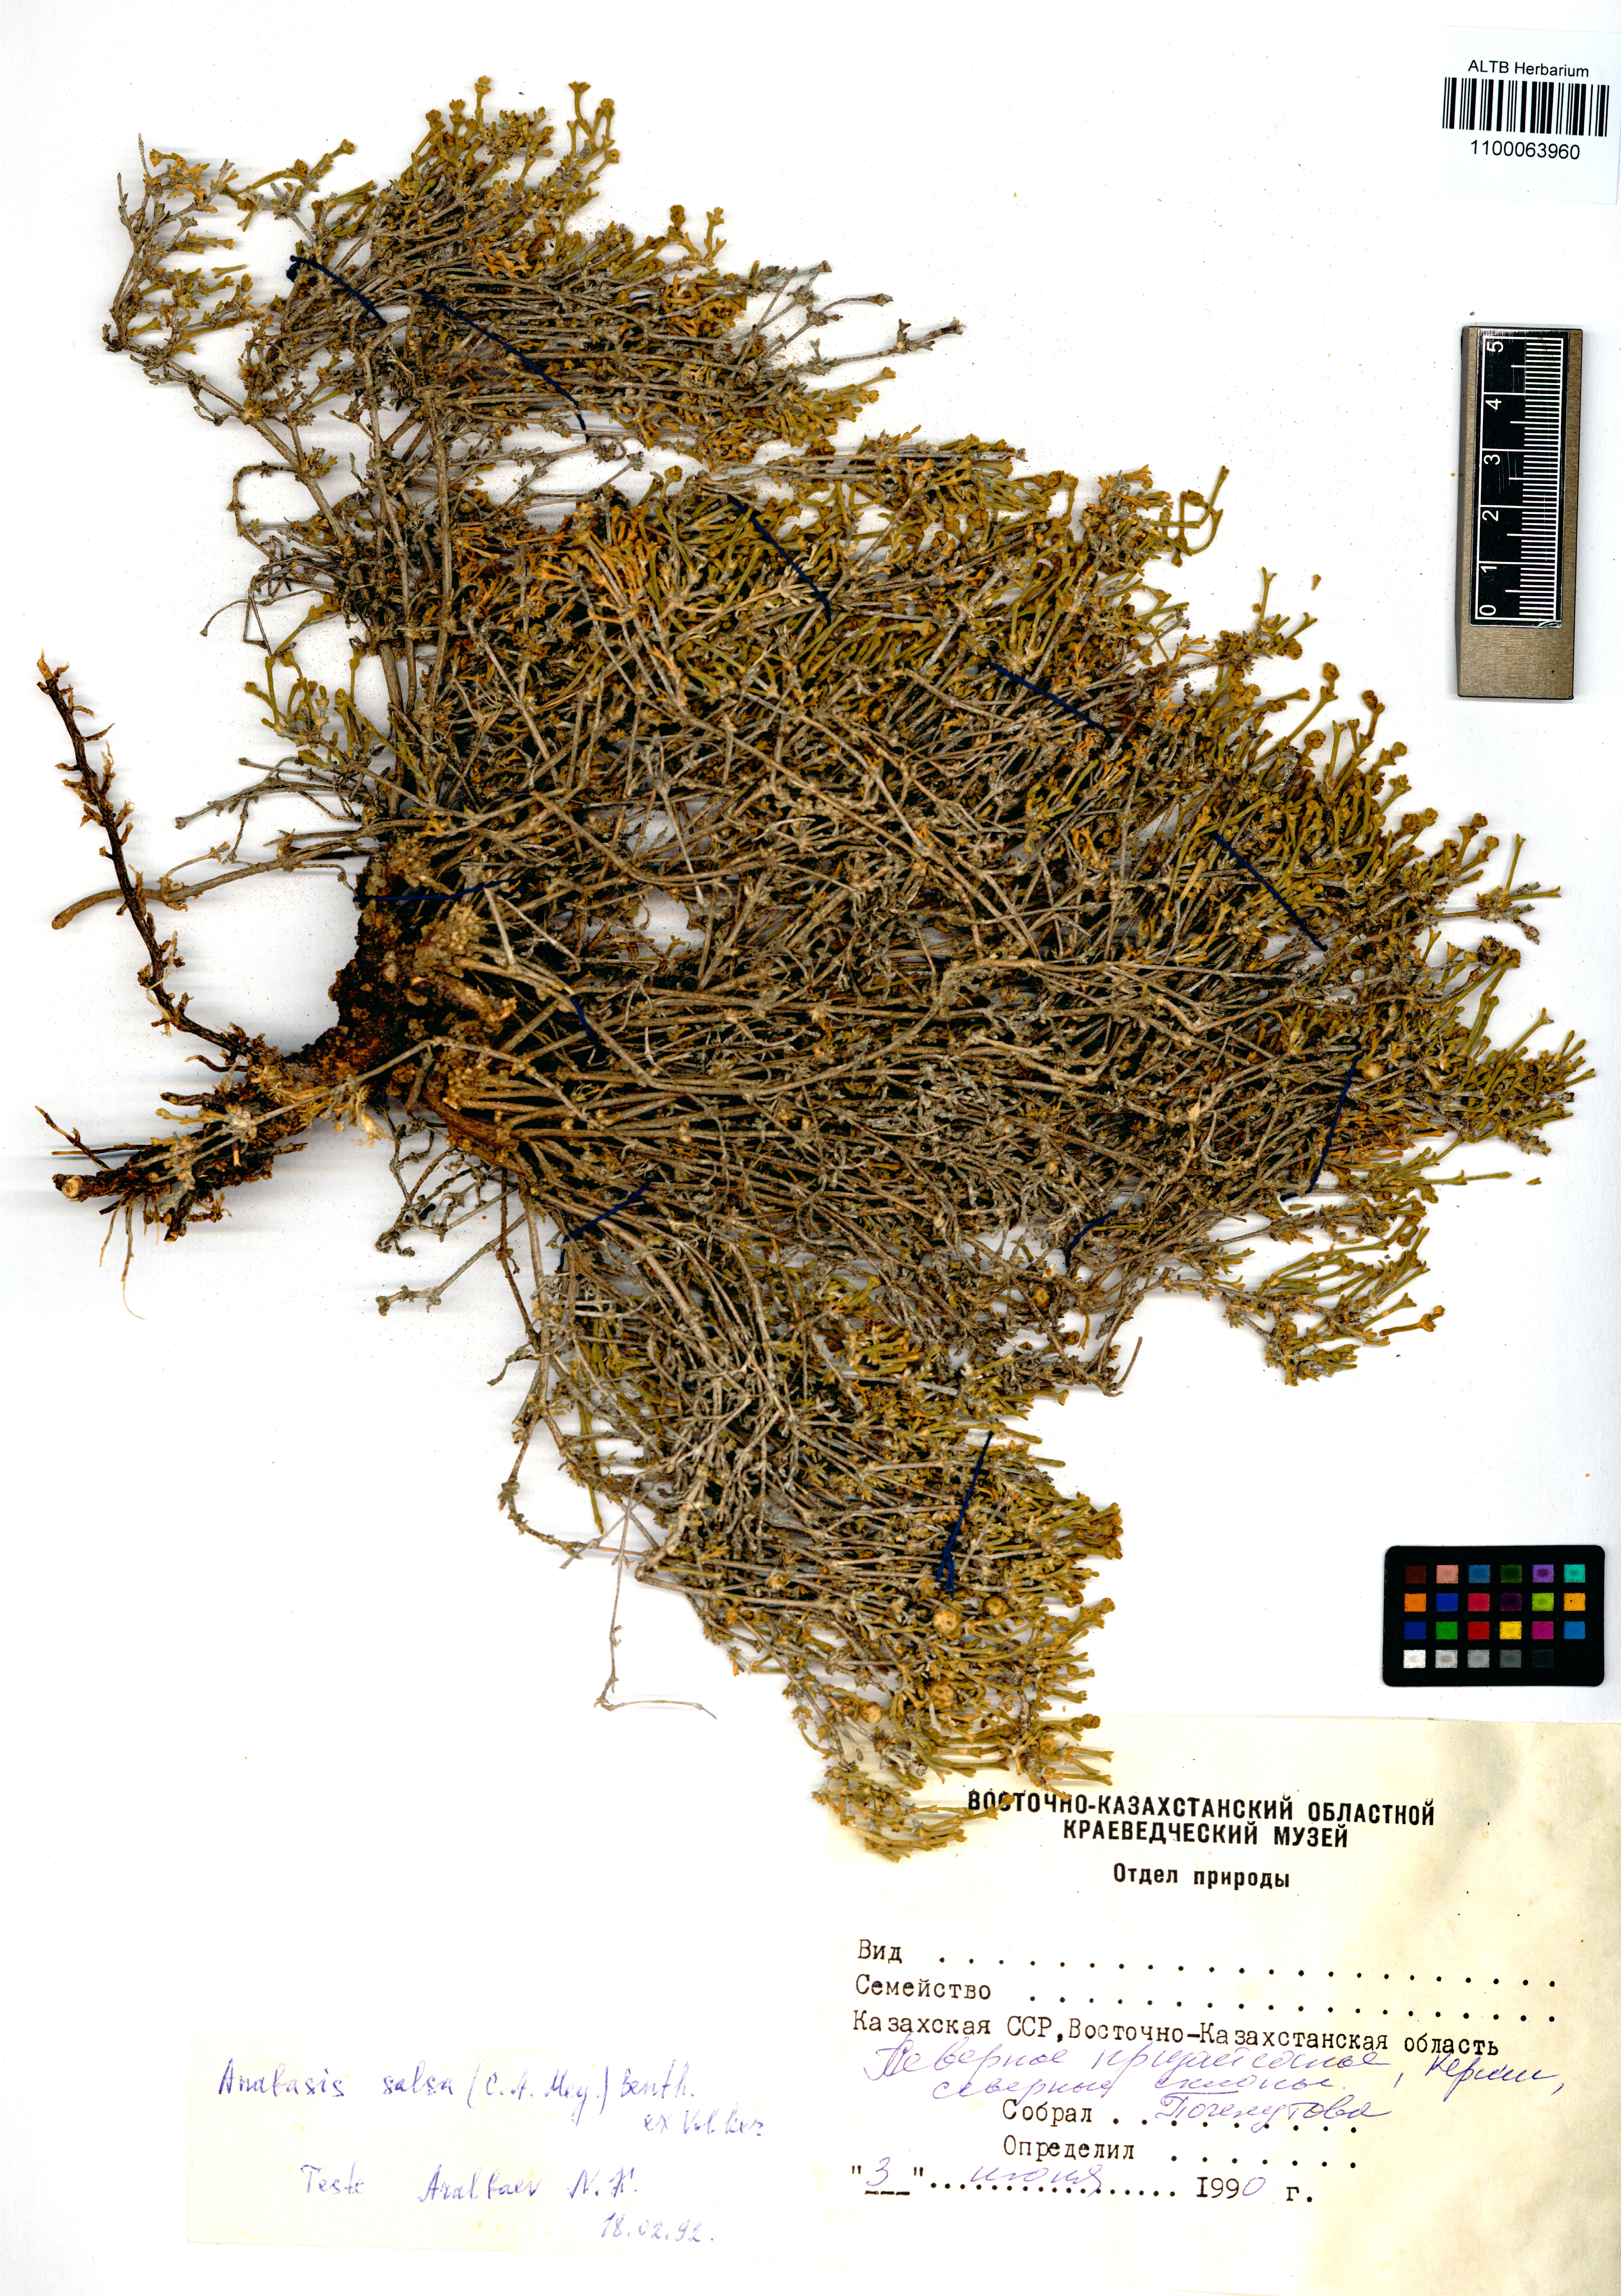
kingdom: Plantae
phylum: Tracheophyta
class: Magnoliopsida
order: Caryophyllales
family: Amaranthaceae
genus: Anabasis
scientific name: Anabasis salsa
